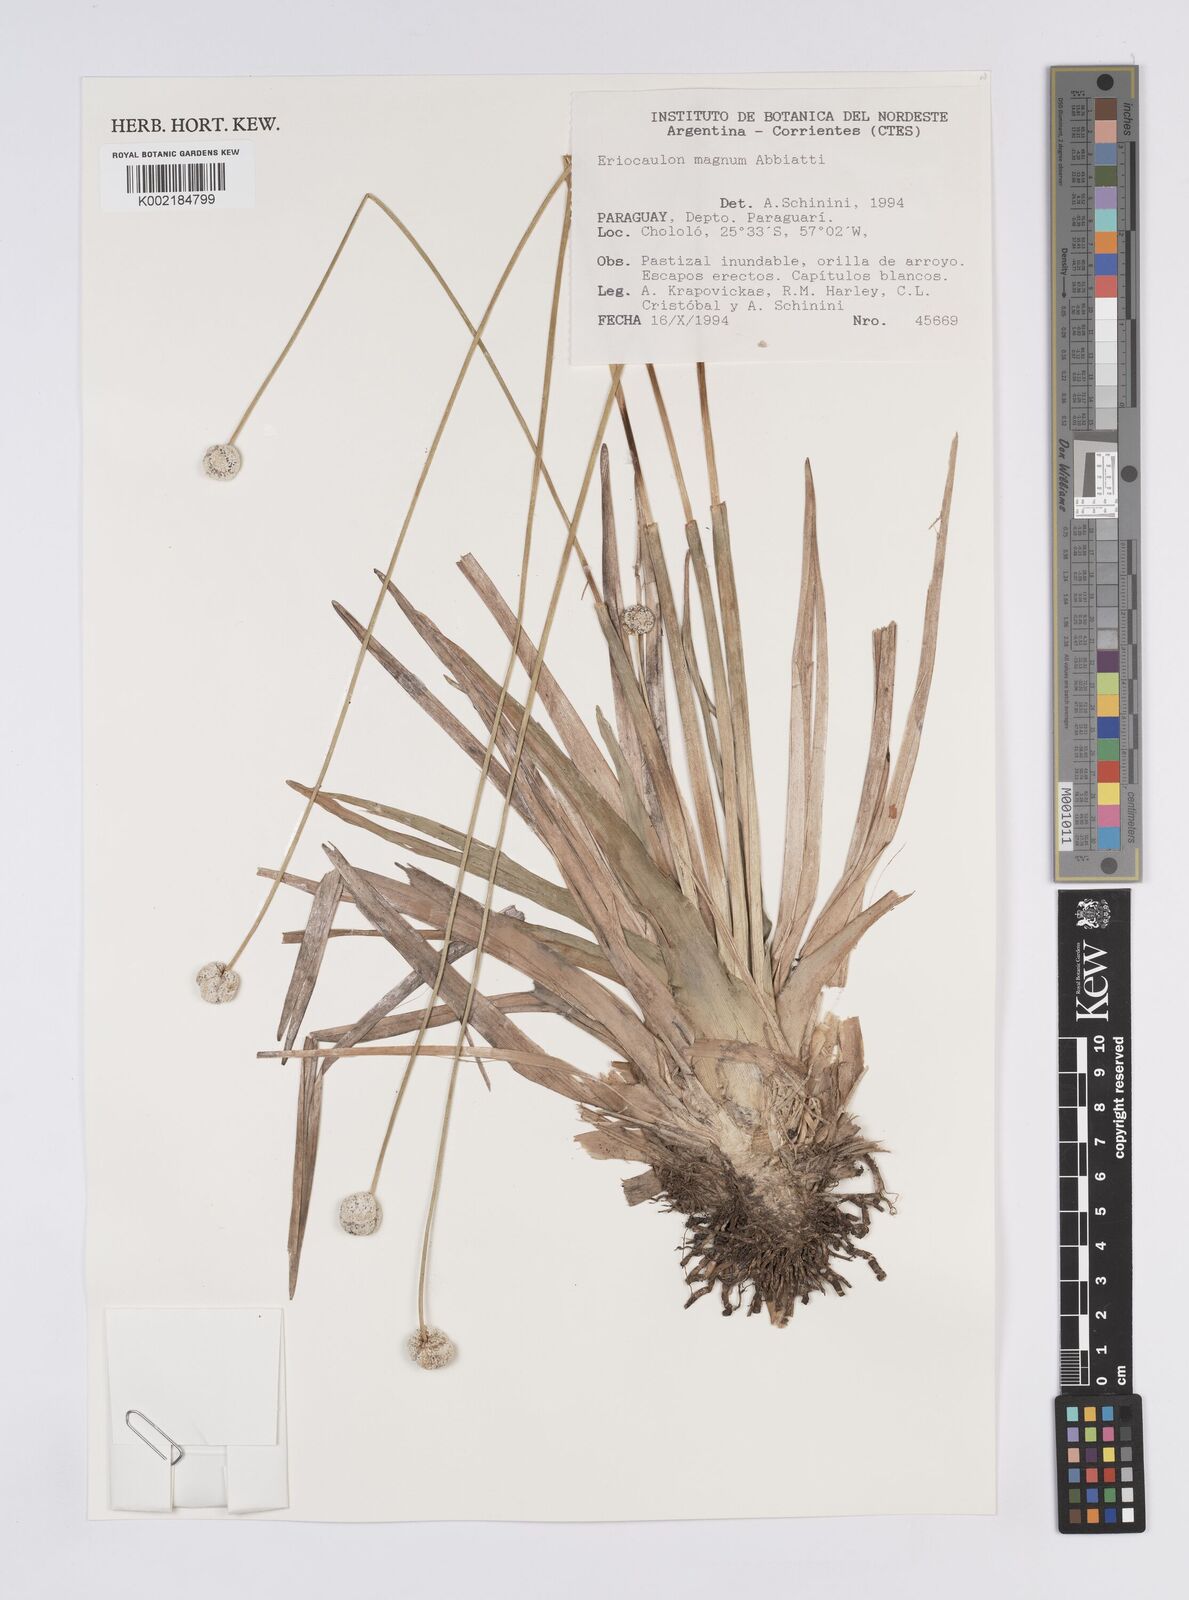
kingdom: Plantae
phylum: Tracheophyta
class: Liliopsida
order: Poales
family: Eriocaulaceae
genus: Eriocaulon
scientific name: Eriocaulon magnum
